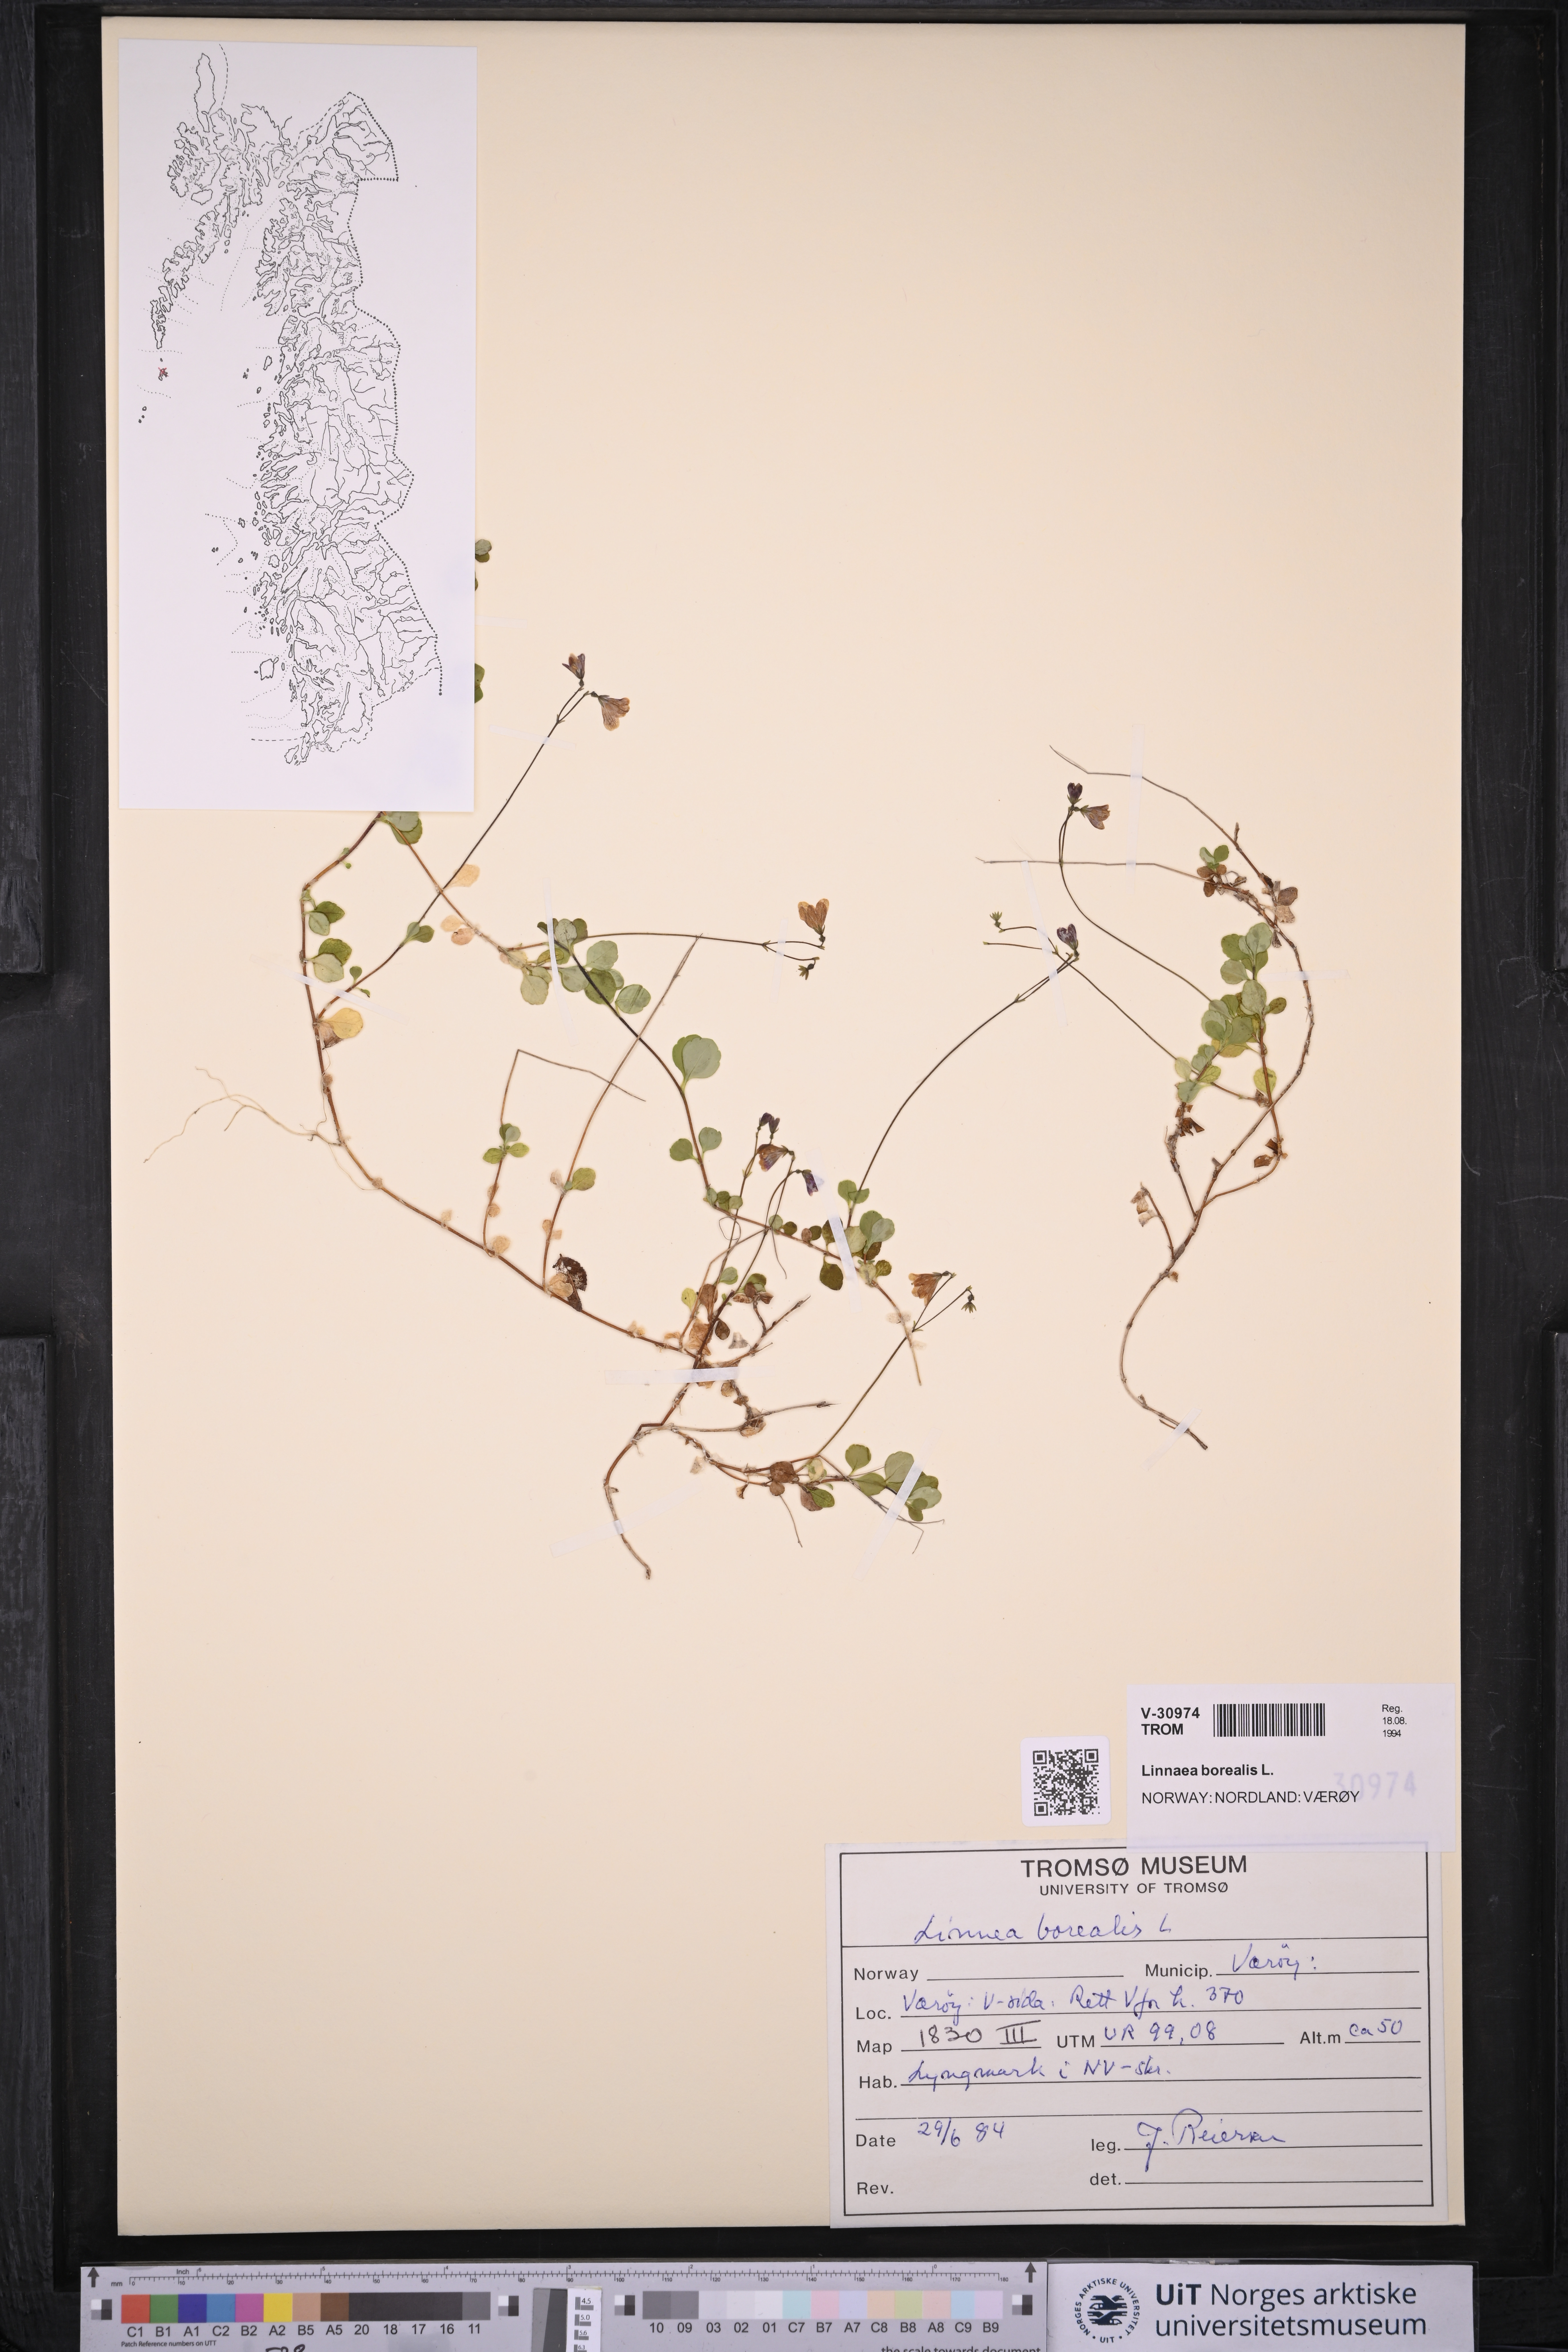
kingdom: Plantae
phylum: Tracheophyta
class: Magnoliopsida
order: Dipsacales
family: Caprifoliaceae
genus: Linnaea
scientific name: Linnaea borealis
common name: Twinflower
